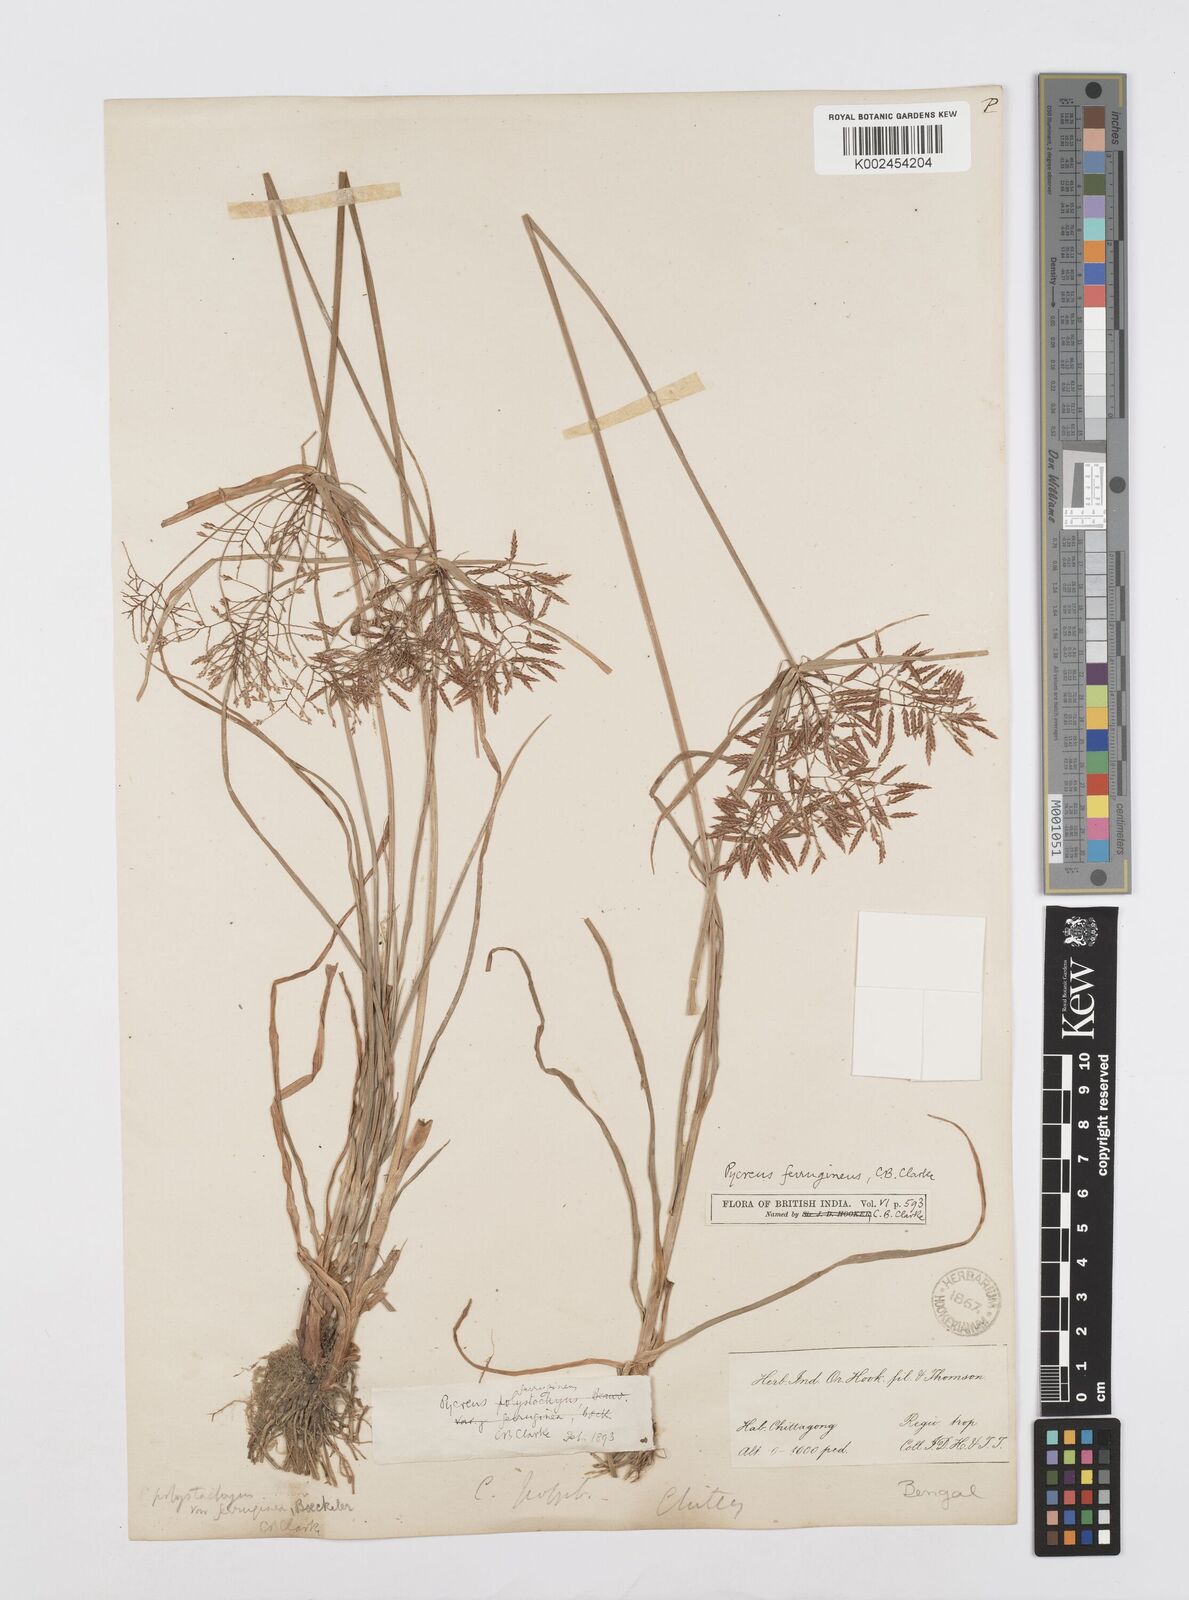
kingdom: Plantae
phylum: Tracheophyta
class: Liliopsida
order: Poales
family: Cyperaceae
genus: Cyperus
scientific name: Cyperus polystachyos
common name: Bunchy flat sedge
